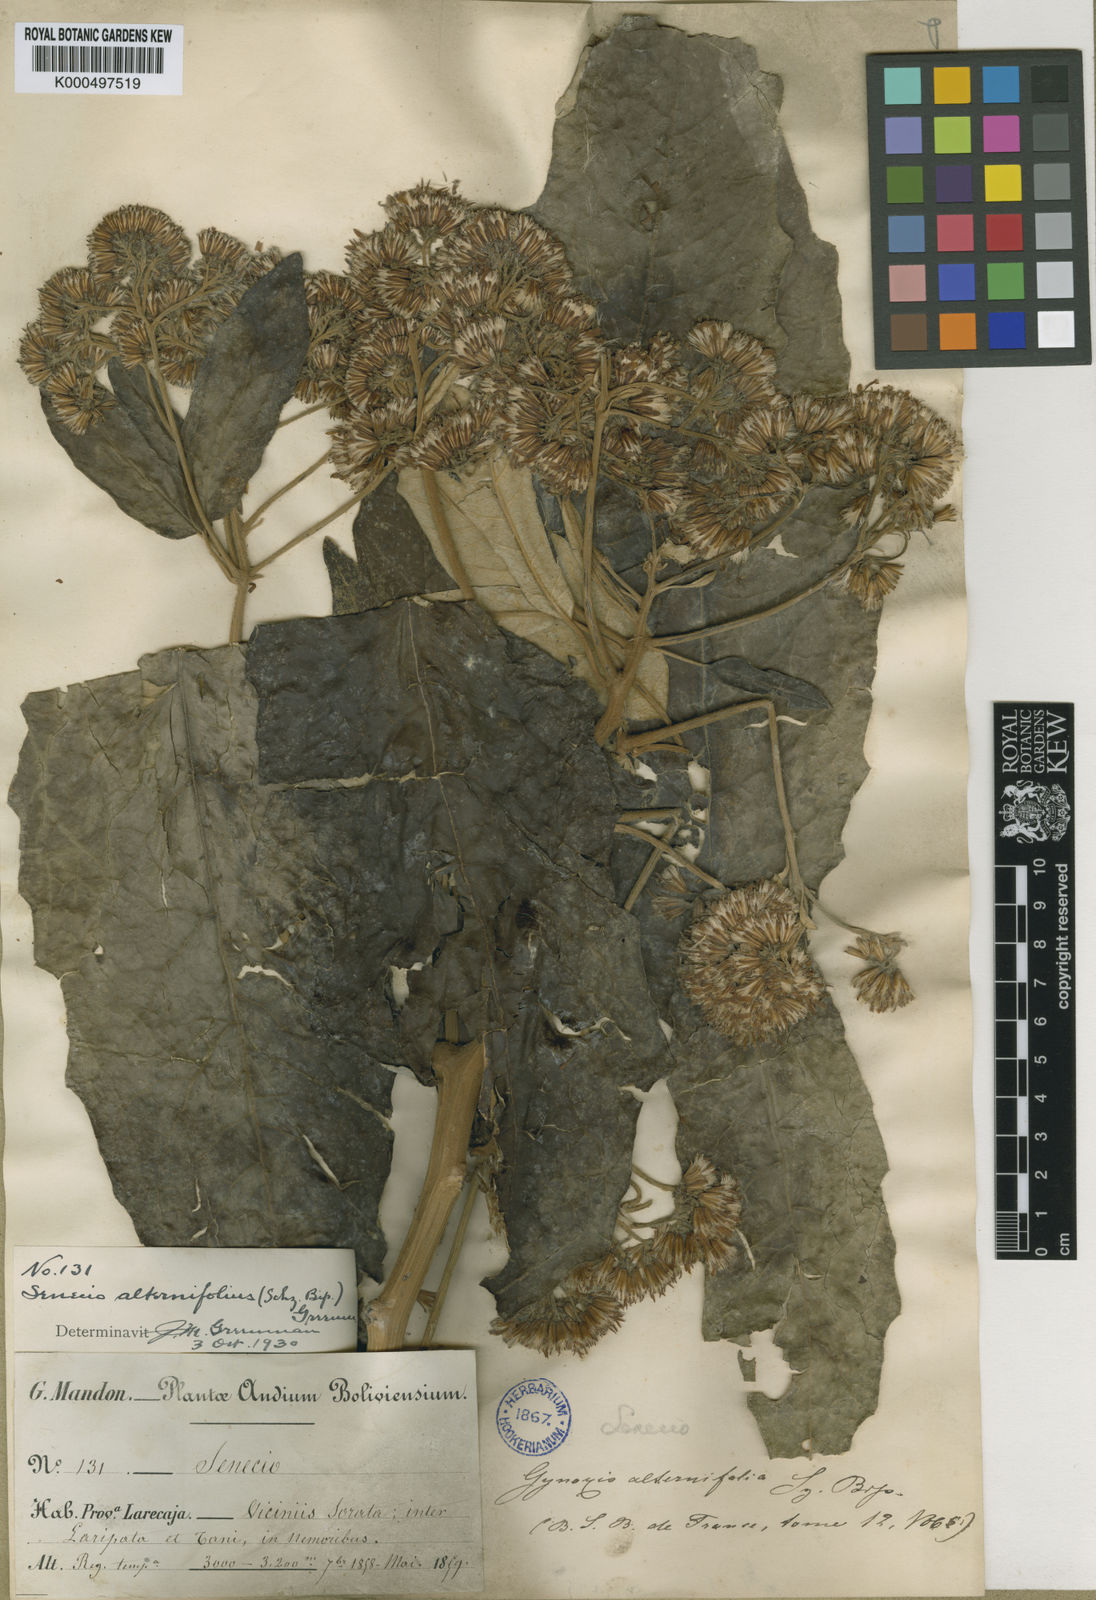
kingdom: Plantae
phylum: Tracheophyta
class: Magnoliopsida
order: Asterales
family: Asteraceae
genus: Nordenstamia
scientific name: Nordenstamia repanda
